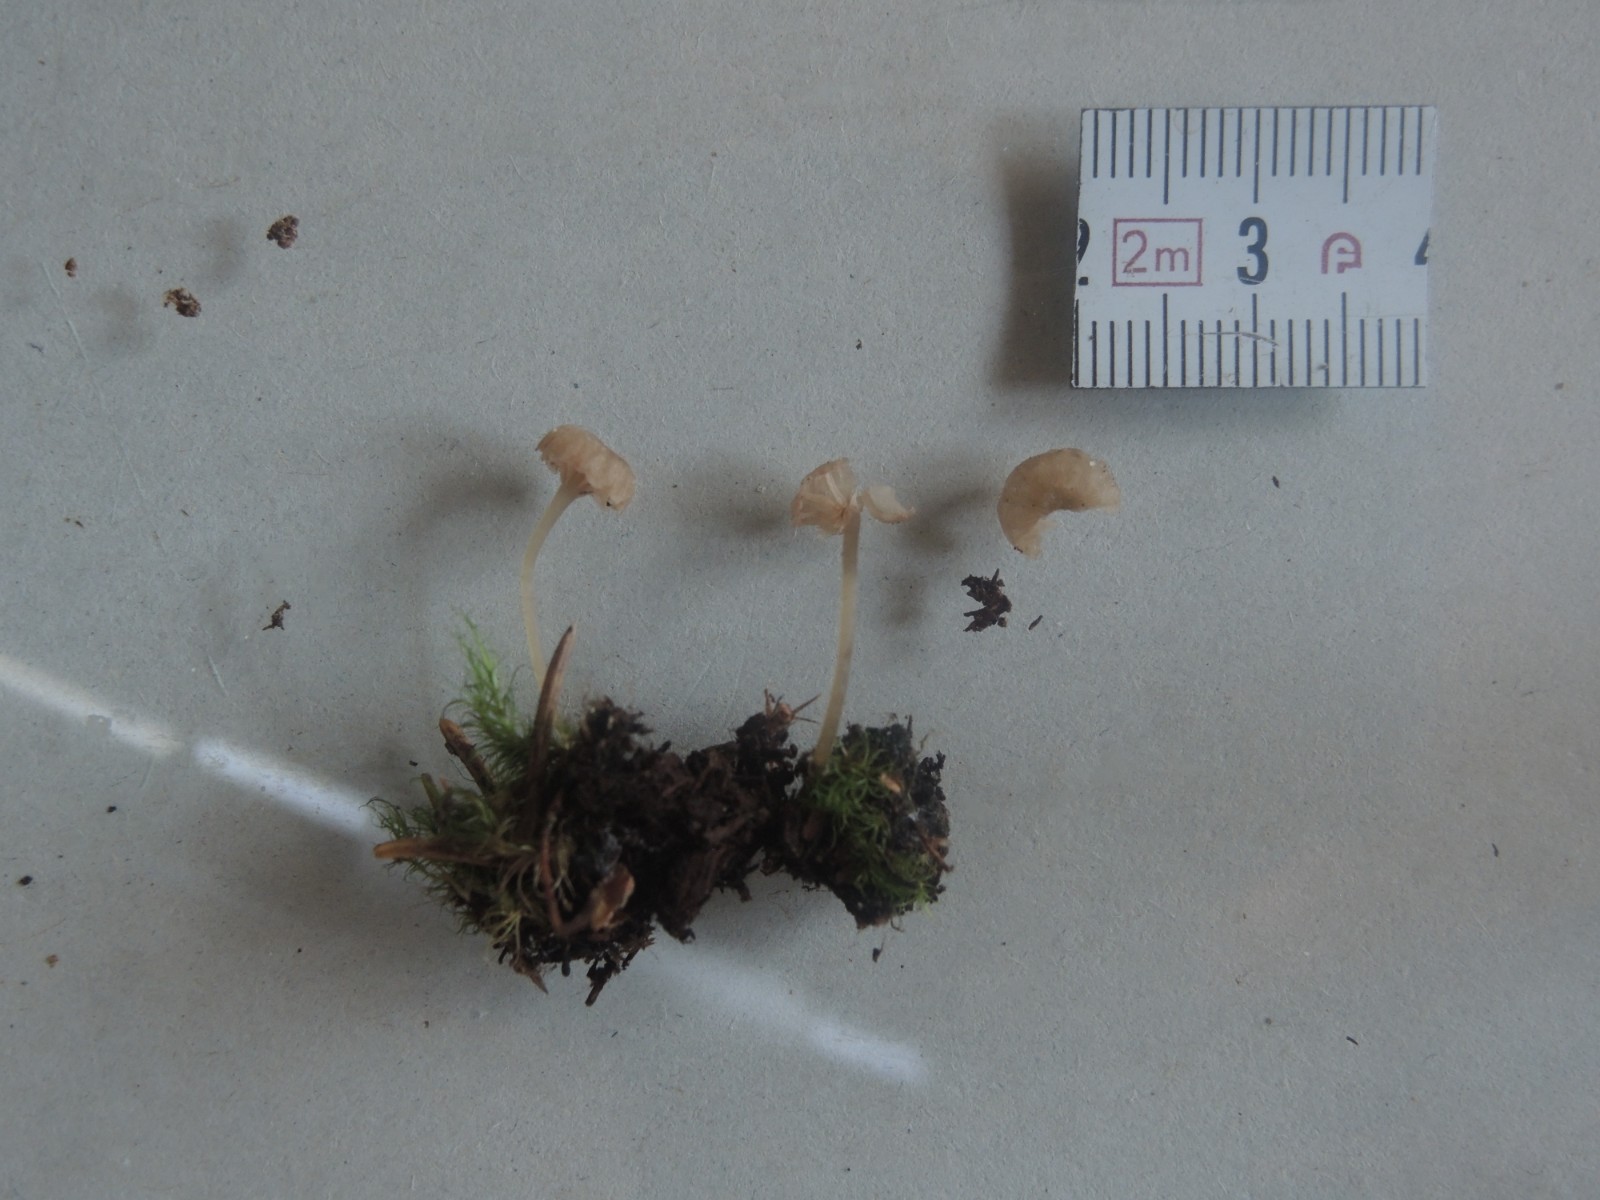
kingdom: Fungi
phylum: Basidiomycota
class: Agaricomycetes
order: Agaricales
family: Entolomataceae
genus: Entoloma
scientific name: Entoloma rhodocylix
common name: fjernbladet rødblad
